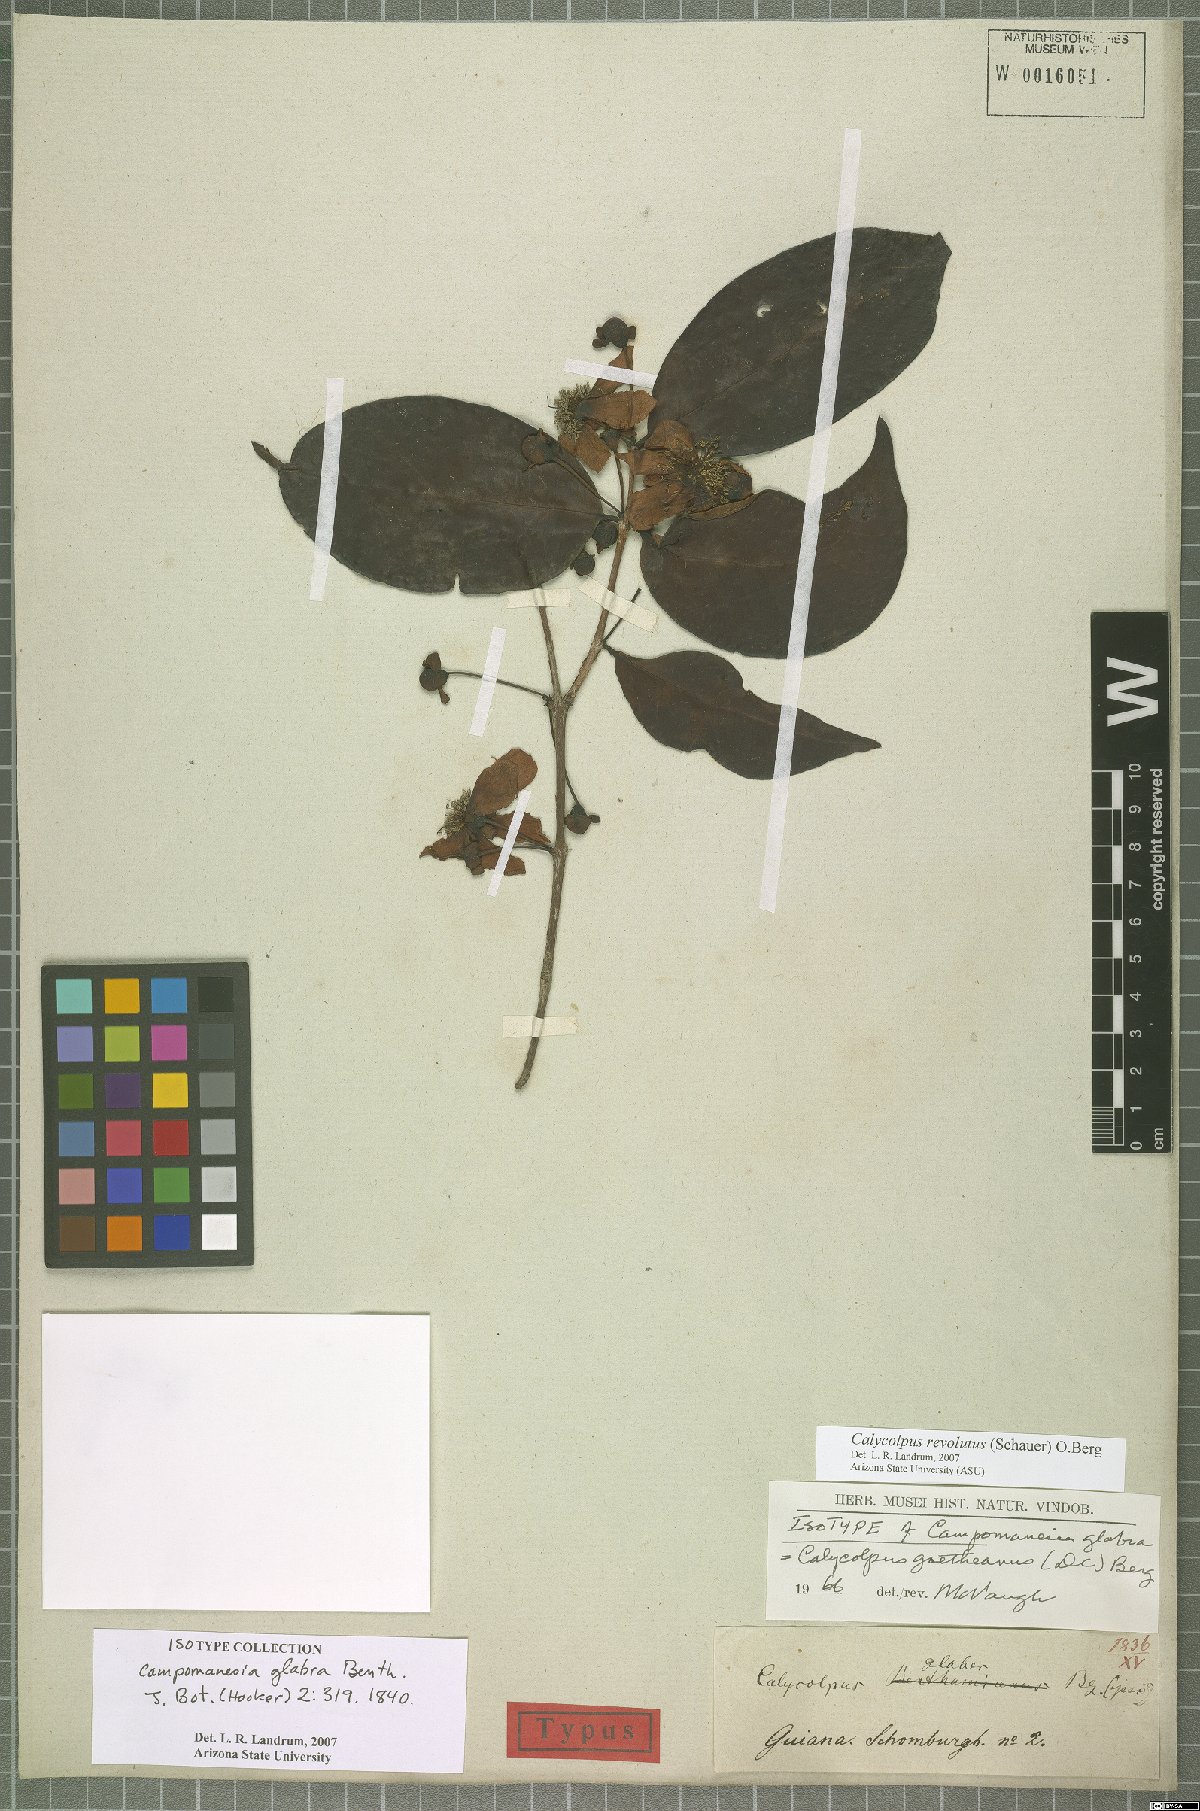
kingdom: Plantae
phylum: Tracheophyta
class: Magnoliopsida
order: Myrtales
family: Myrtaceae
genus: Calycolpus
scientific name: Calycolpus revolutus
